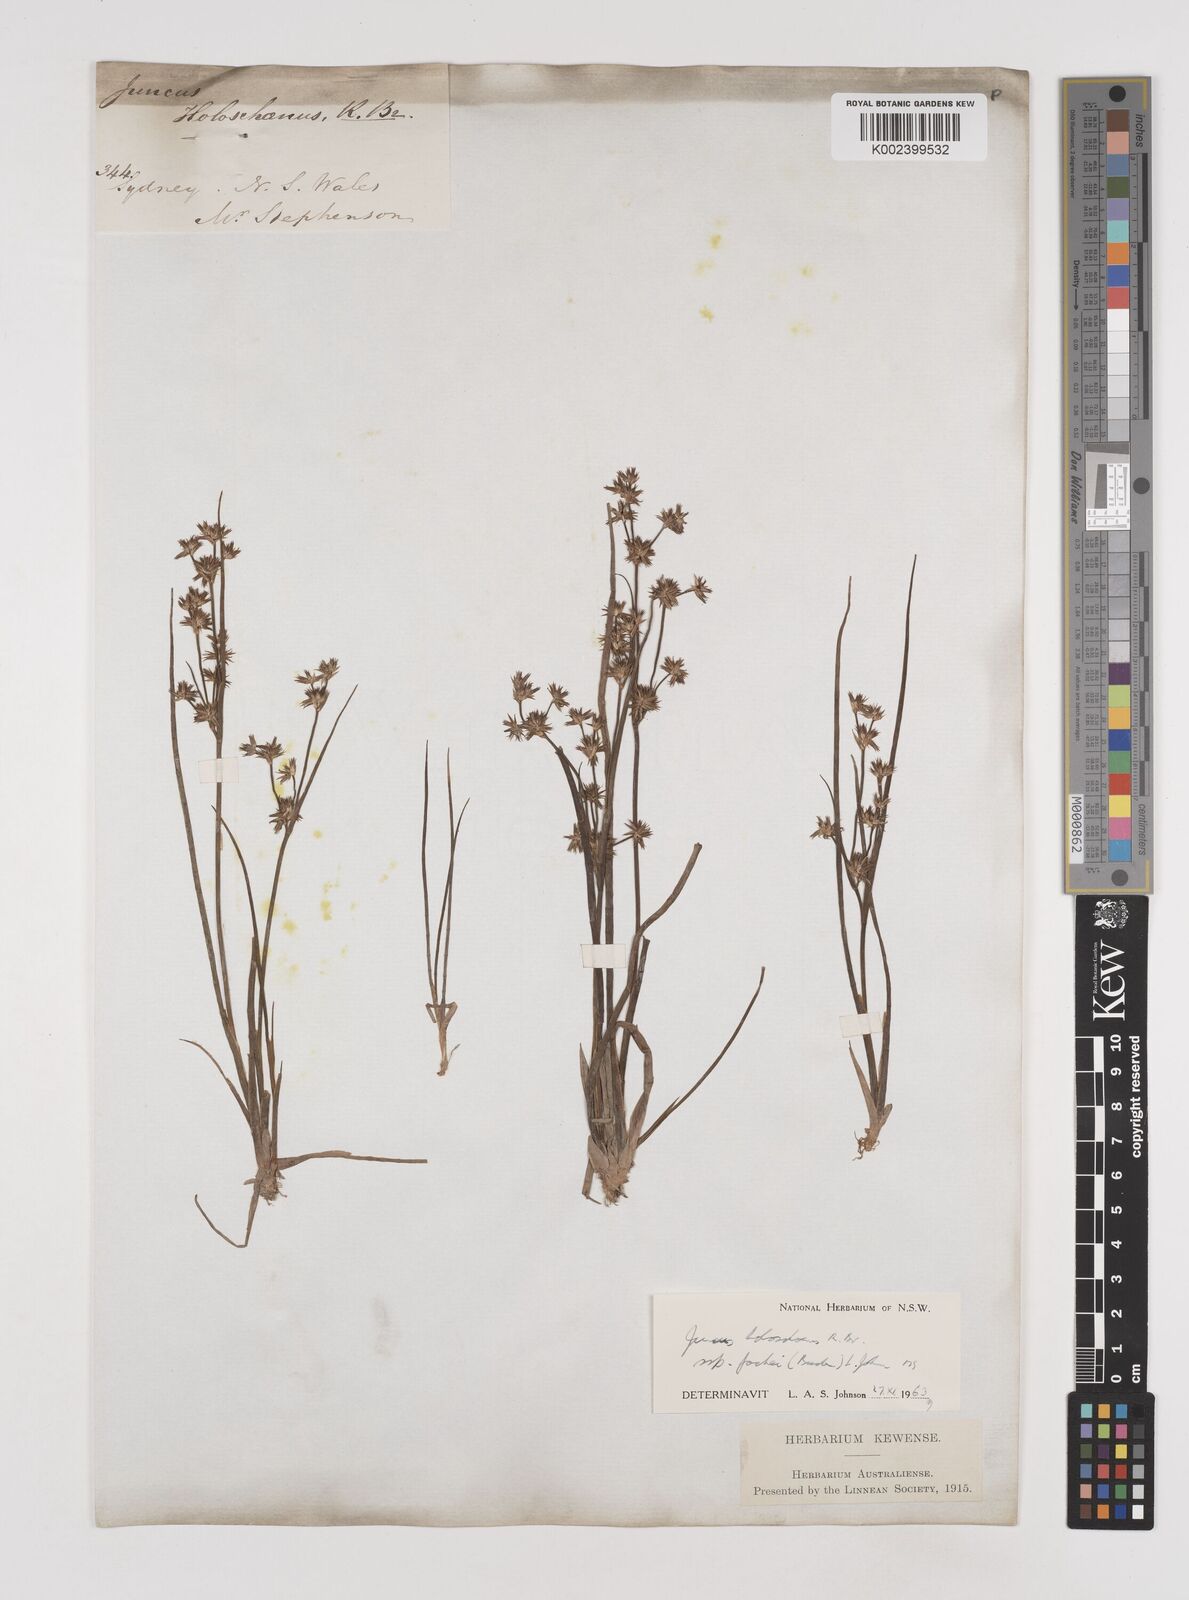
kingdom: Plantae
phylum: Tracheophyta
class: Liliopsida
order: Poales
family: Juncaceae
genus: Juncus
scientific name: Juncus holoschoenus
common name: Joint-leaf rush
